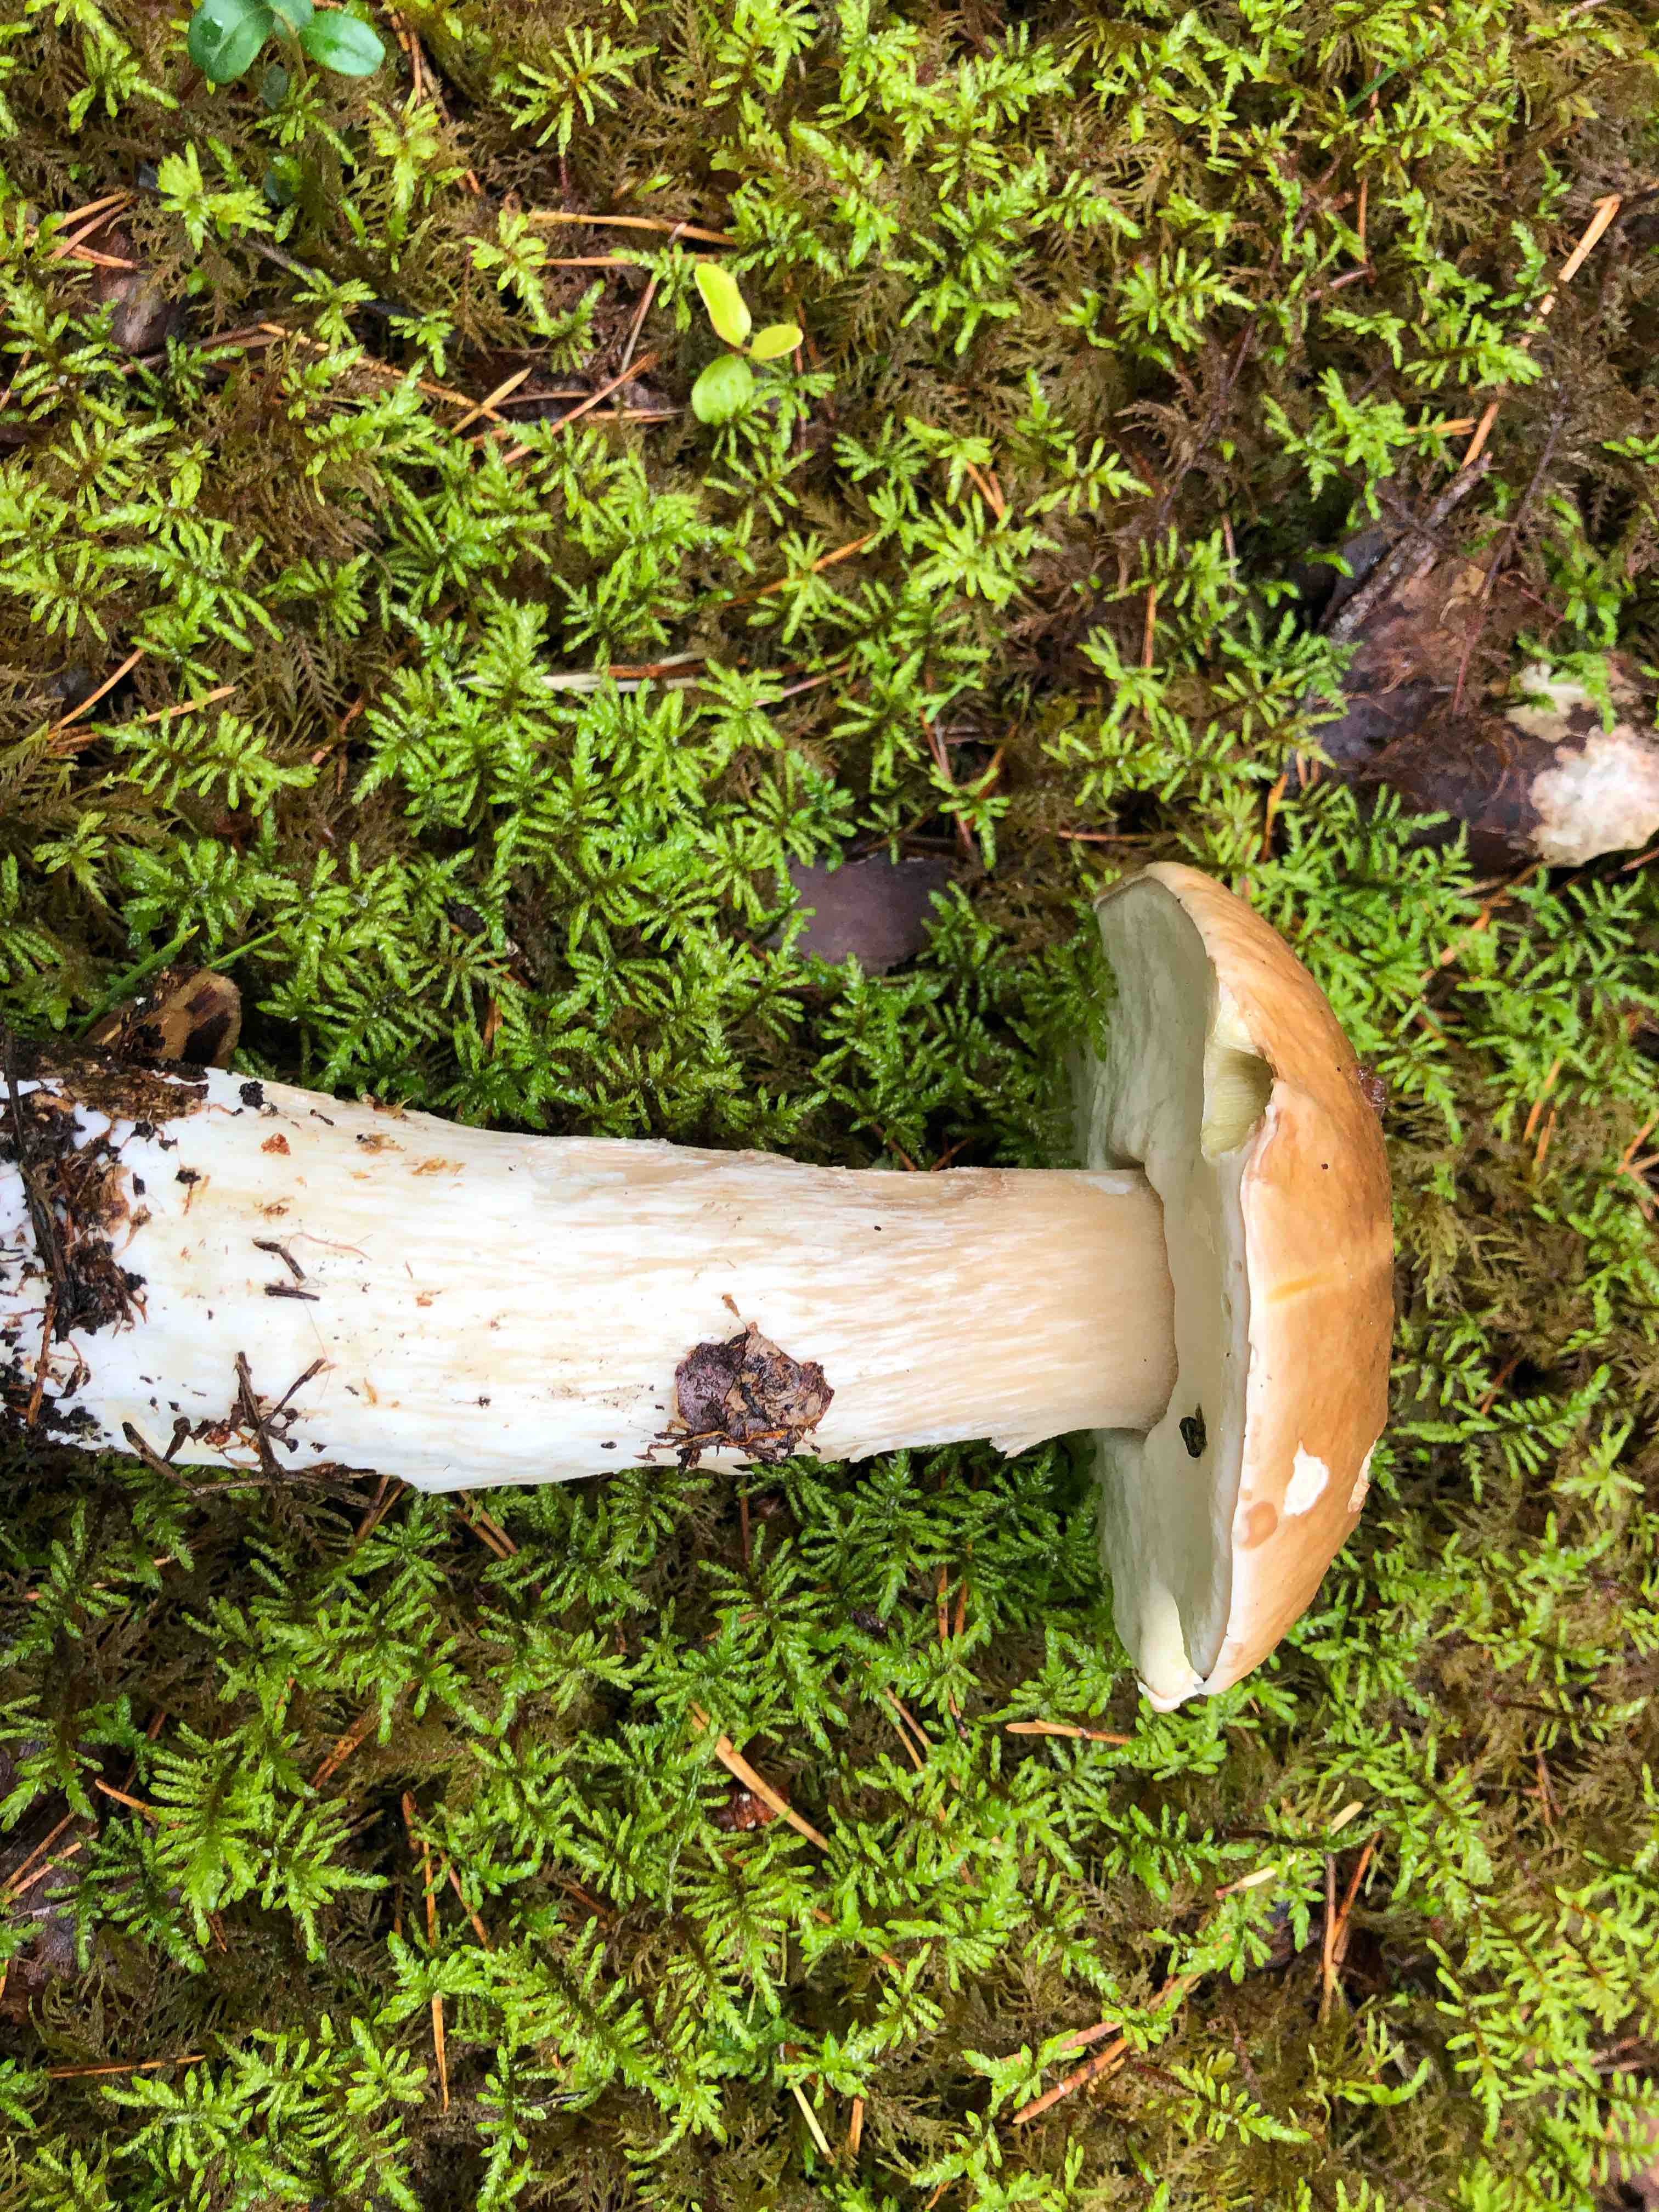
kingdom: Fungi
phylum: Basidiomycota
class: Agaricomycetes
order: Boletales
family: Boletaceae
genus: Boletus
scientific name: Boletus edulis
